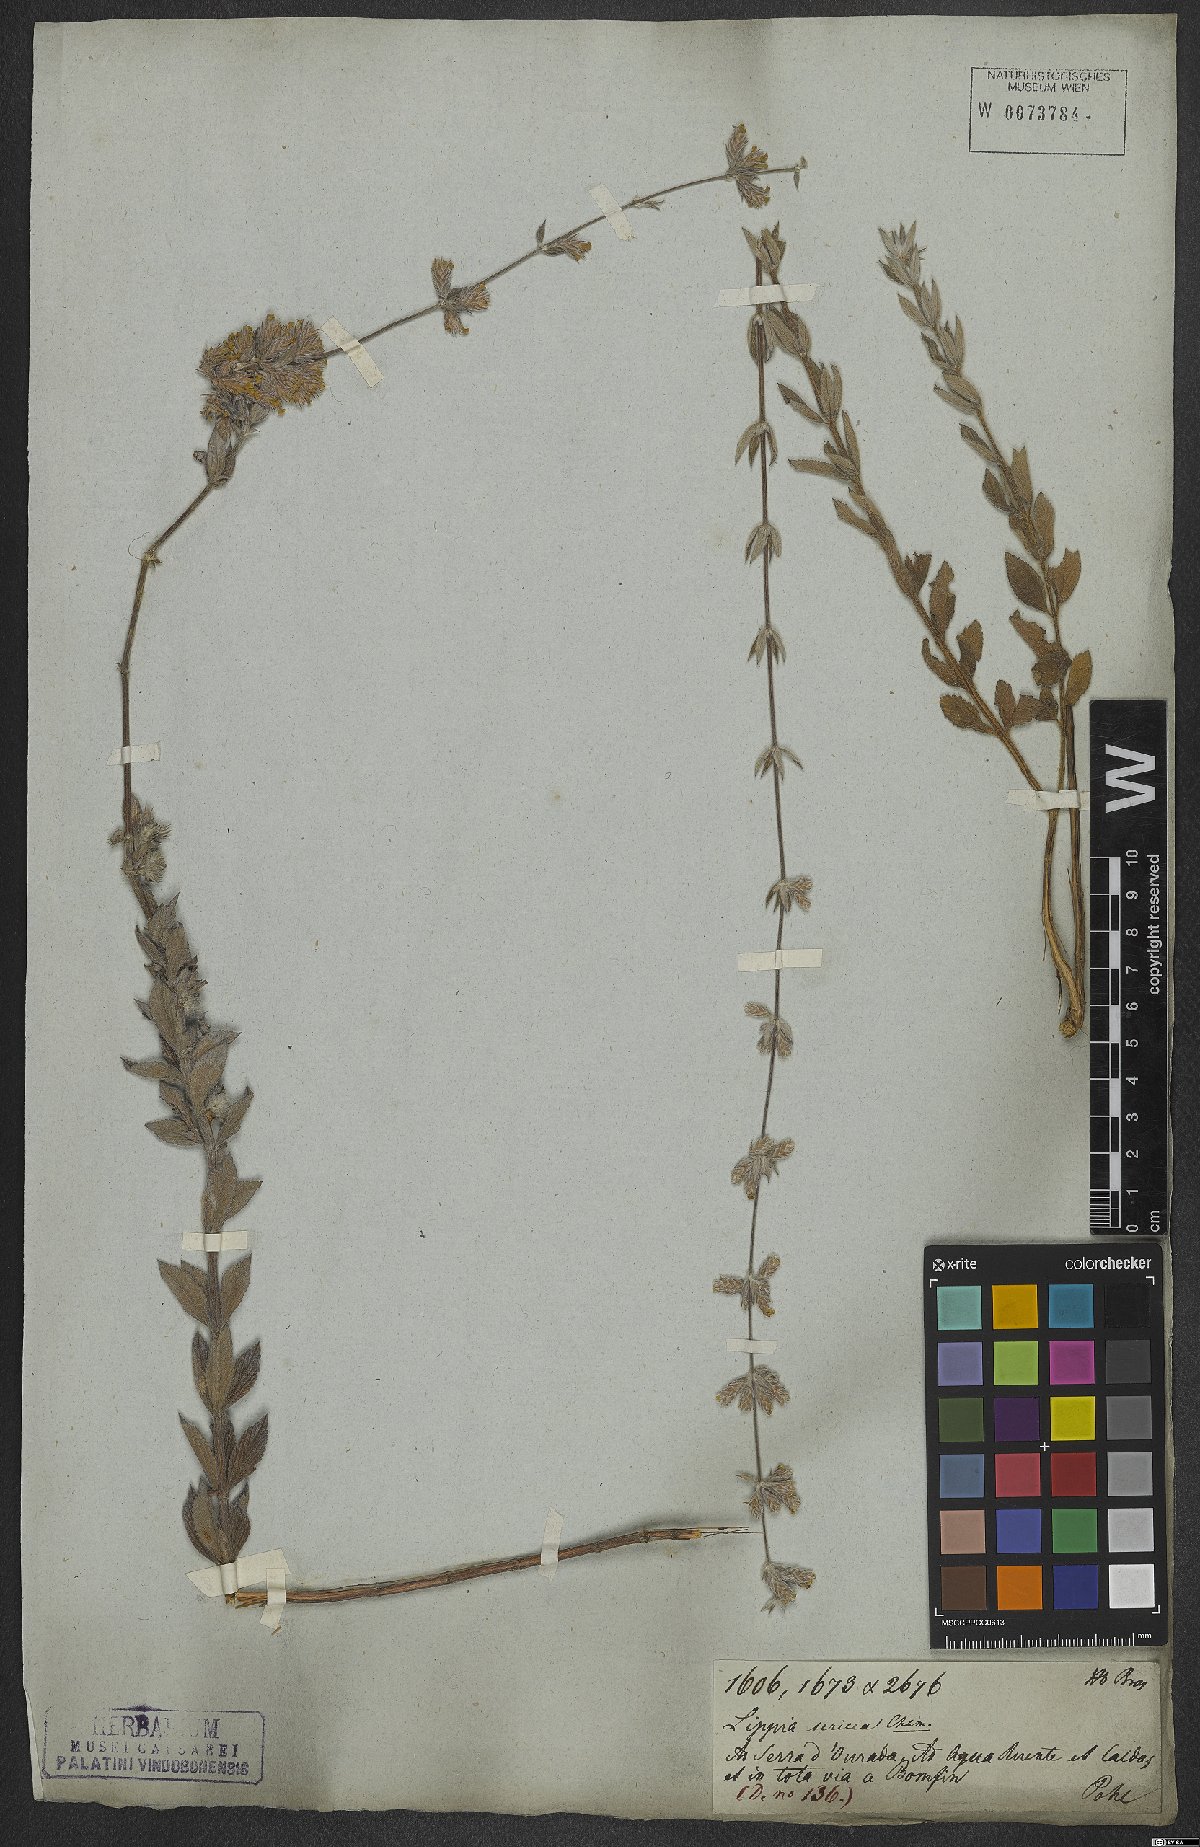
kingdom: Plantae
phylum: Tracheophyta
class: Magnoliopsida
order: Lamiales
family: Verbenaceae
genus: Lippia
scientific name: Lippia sericea
